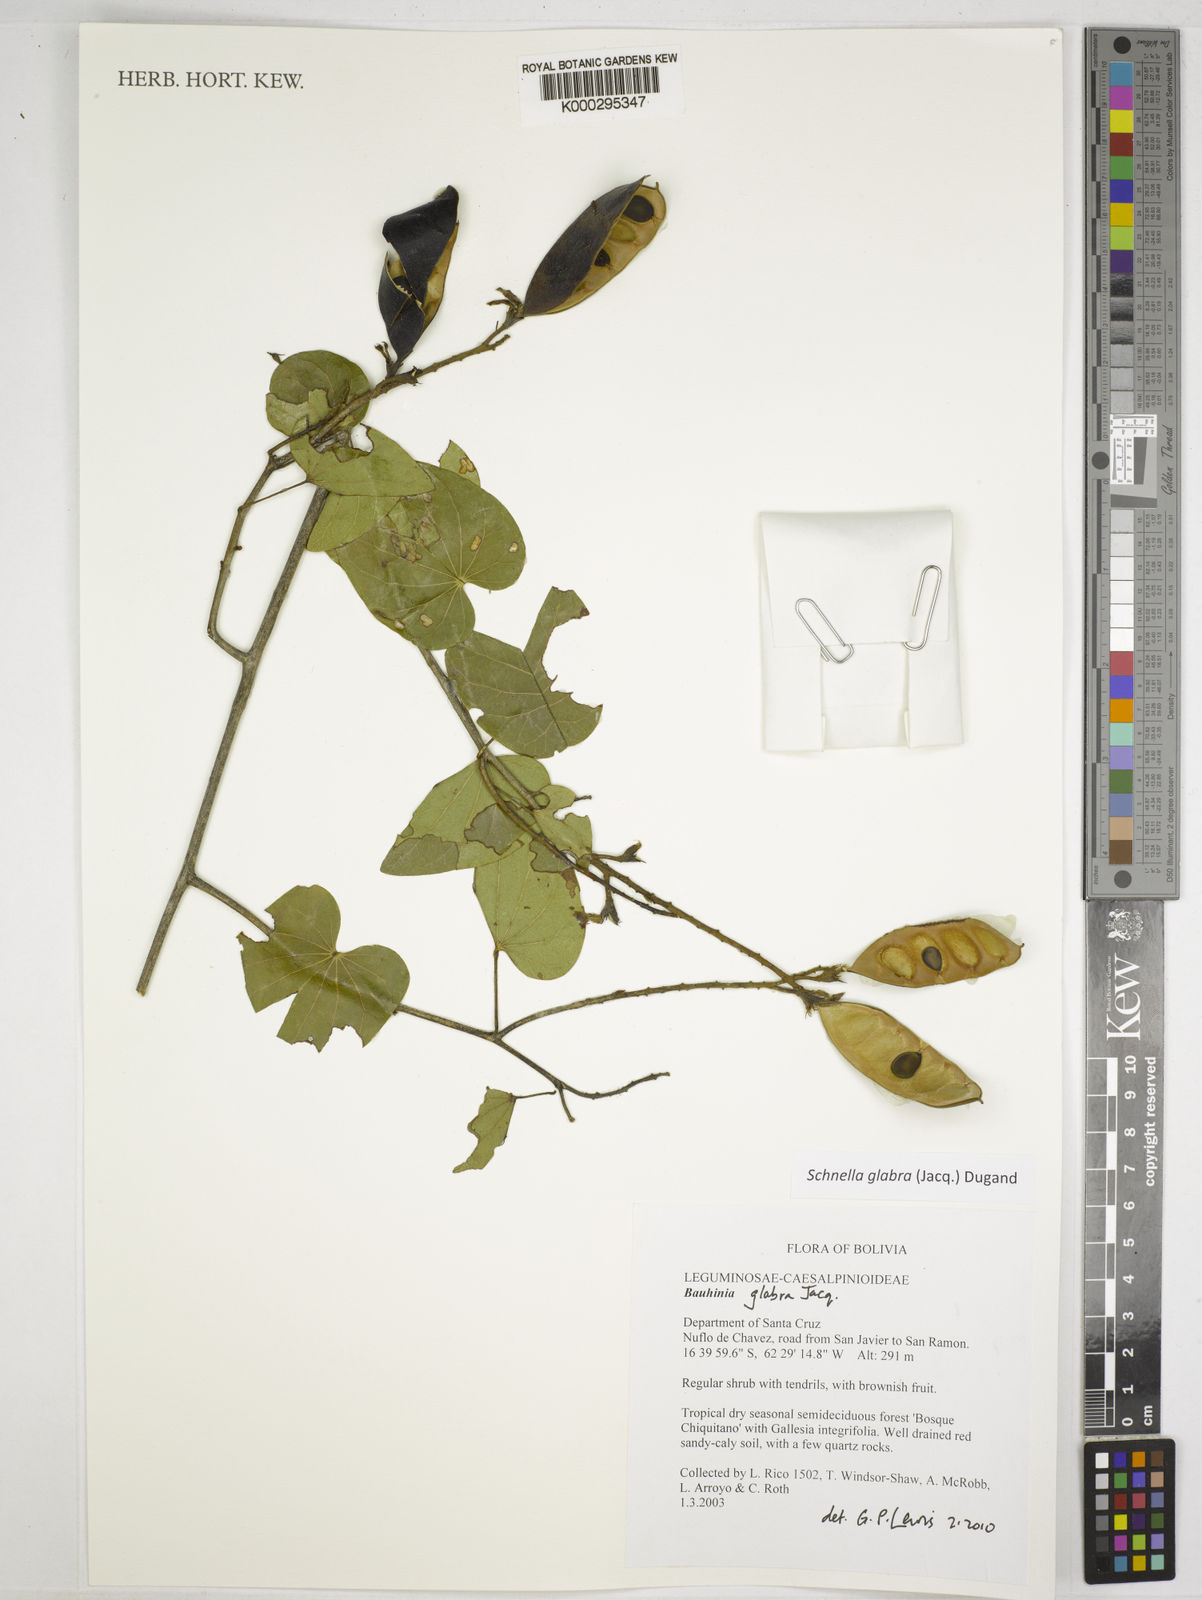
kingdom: Plantae
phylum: Tracheophyta
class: Magnoliopsida
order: Fabales
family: Fabaceae
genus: Schnella
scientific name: Schnella glabra
